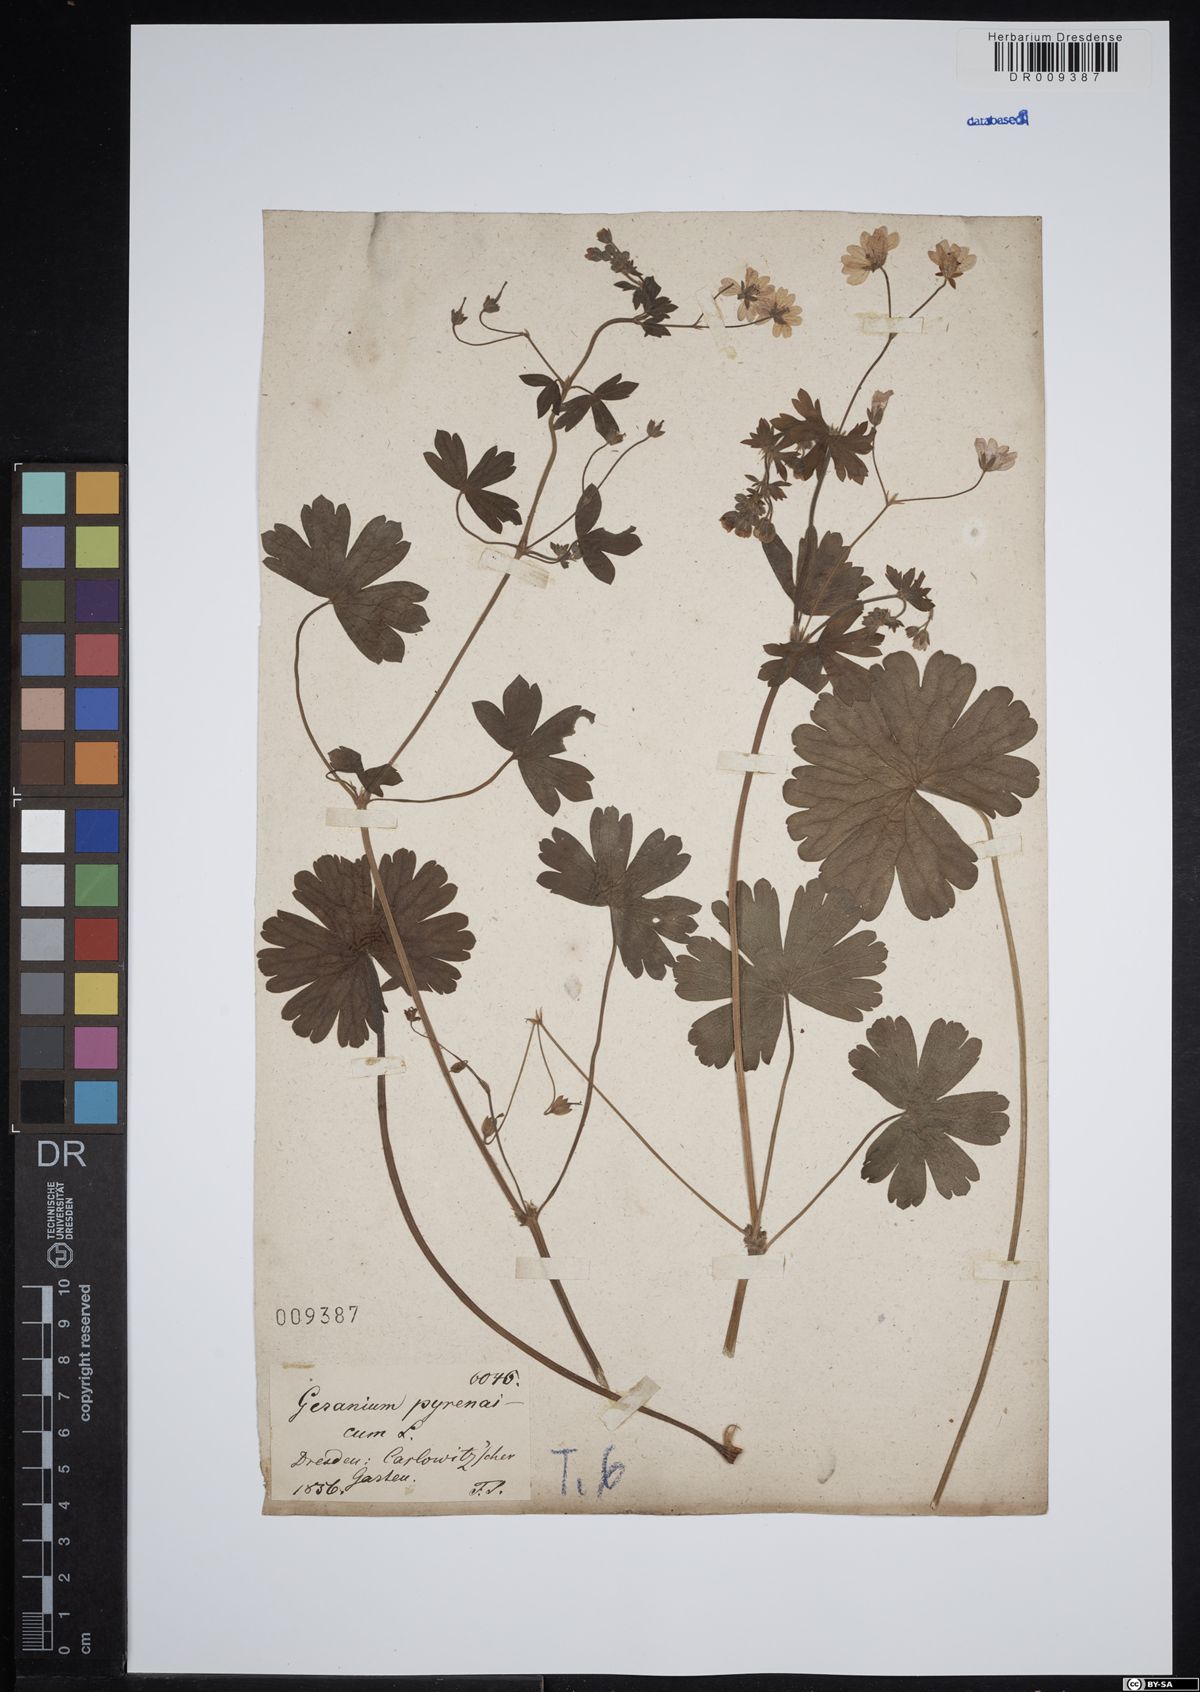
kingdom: Plantae
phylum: Tracheophyta
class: Magnoliopsida
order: Geraniales
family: Geraniaceae
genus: Geranium
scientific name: Geranium pyrenaicum
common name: Hedgerow crane's-bill
